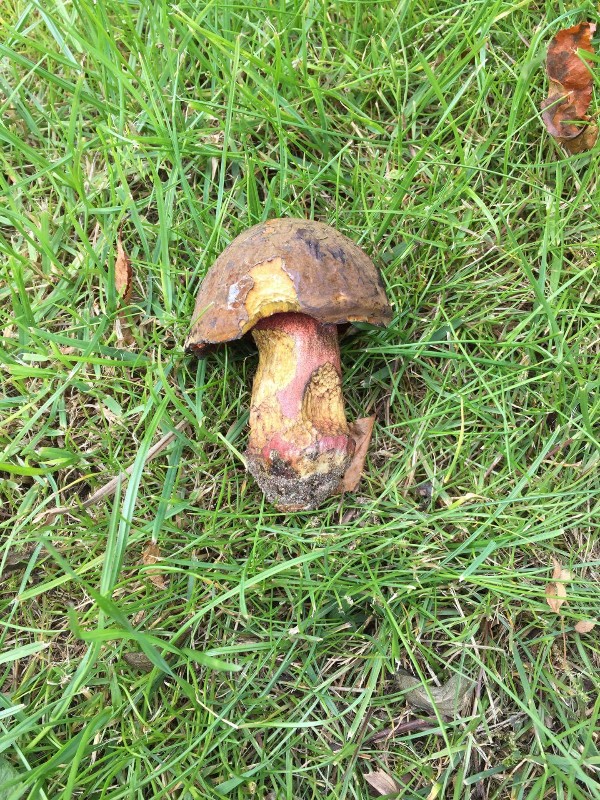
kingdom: Fungi
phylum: Basidiomycota
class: Agaricomycetes
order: Boletales
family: Boletaceae
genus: Neoboletus
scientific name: Neoboletus erythropus
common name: punktstokket indigorørhat
